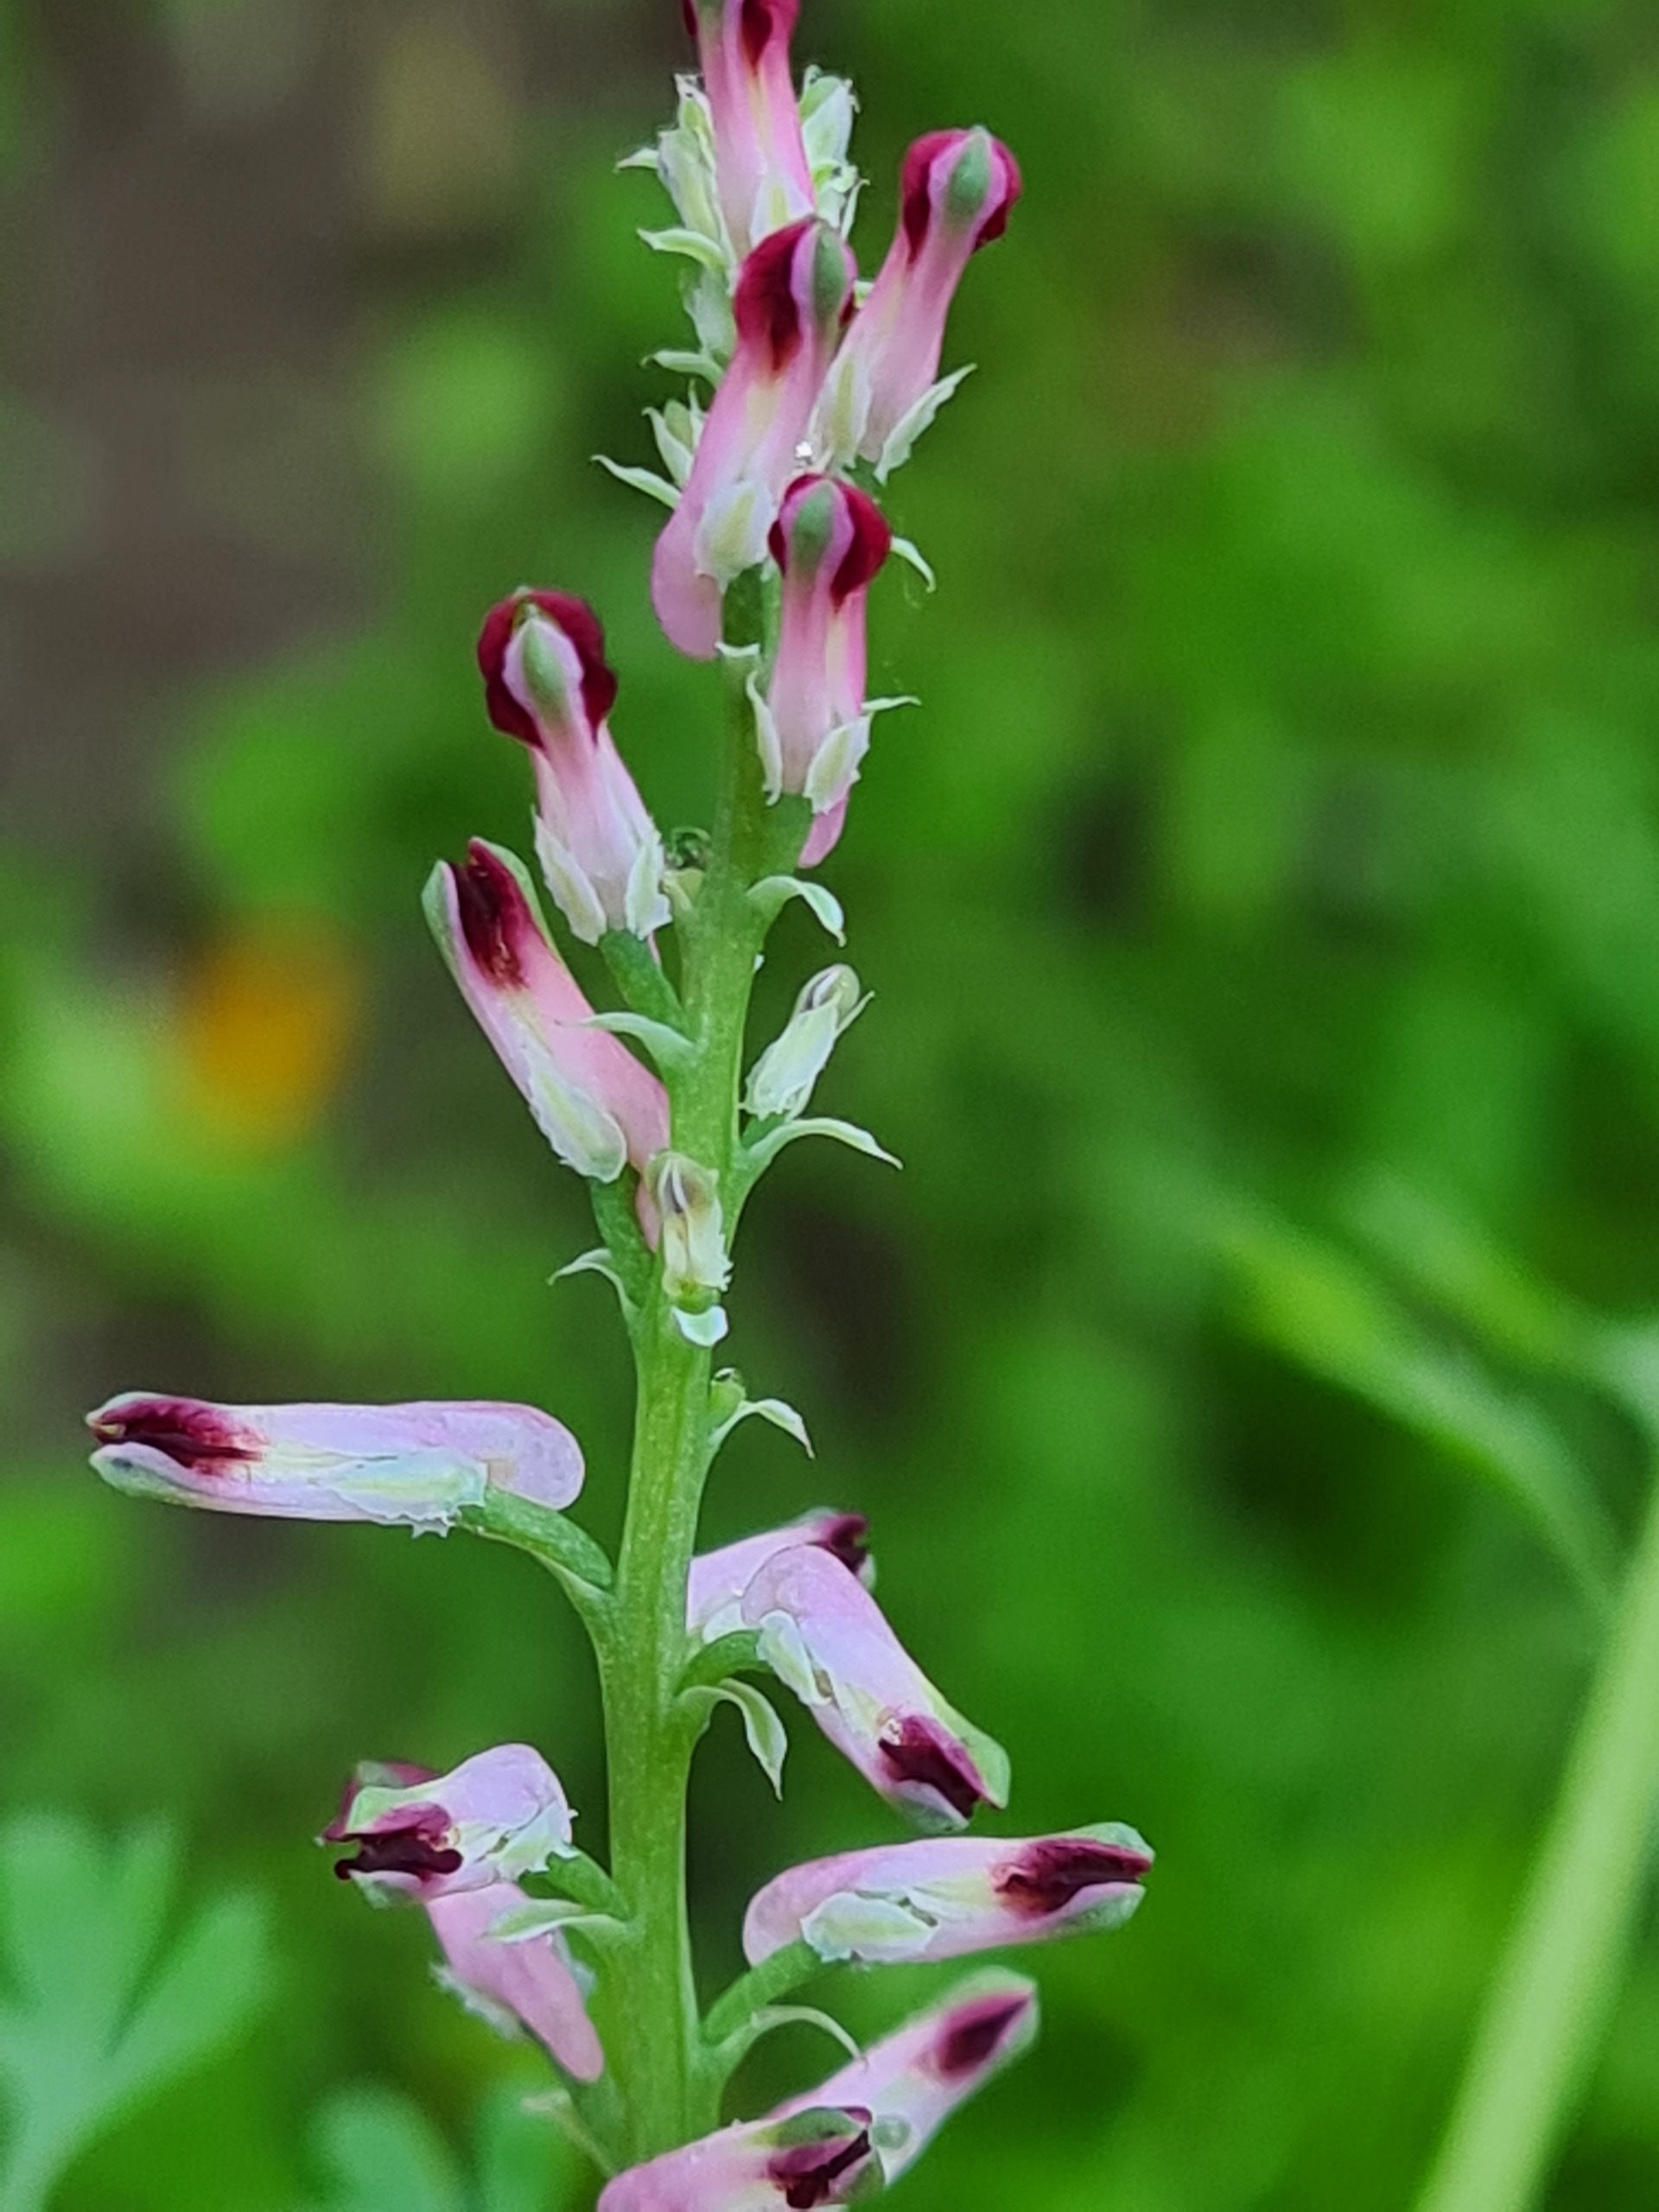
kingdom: Plantae
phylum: Tracheophyta
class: Magnoliopsida
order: Ranunculales
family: Papaveraceae
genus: Fumaria
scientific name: Fumaria officinalis
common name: Læge-jordrøg
